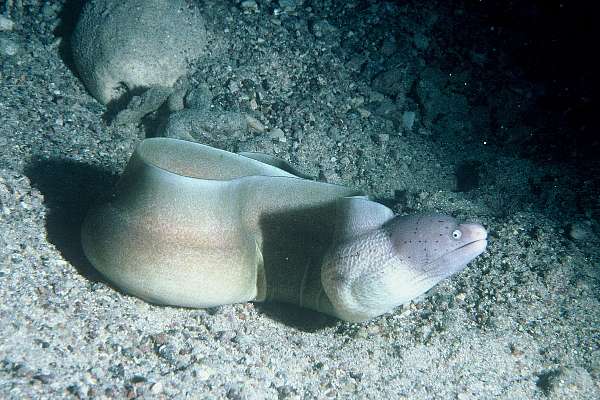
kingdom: Animalia
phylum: Chordata
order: Anguilliformes
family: Muraenidae
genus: Gymnothorax
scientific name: Gymnothorax griseus
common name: Geometric moray
